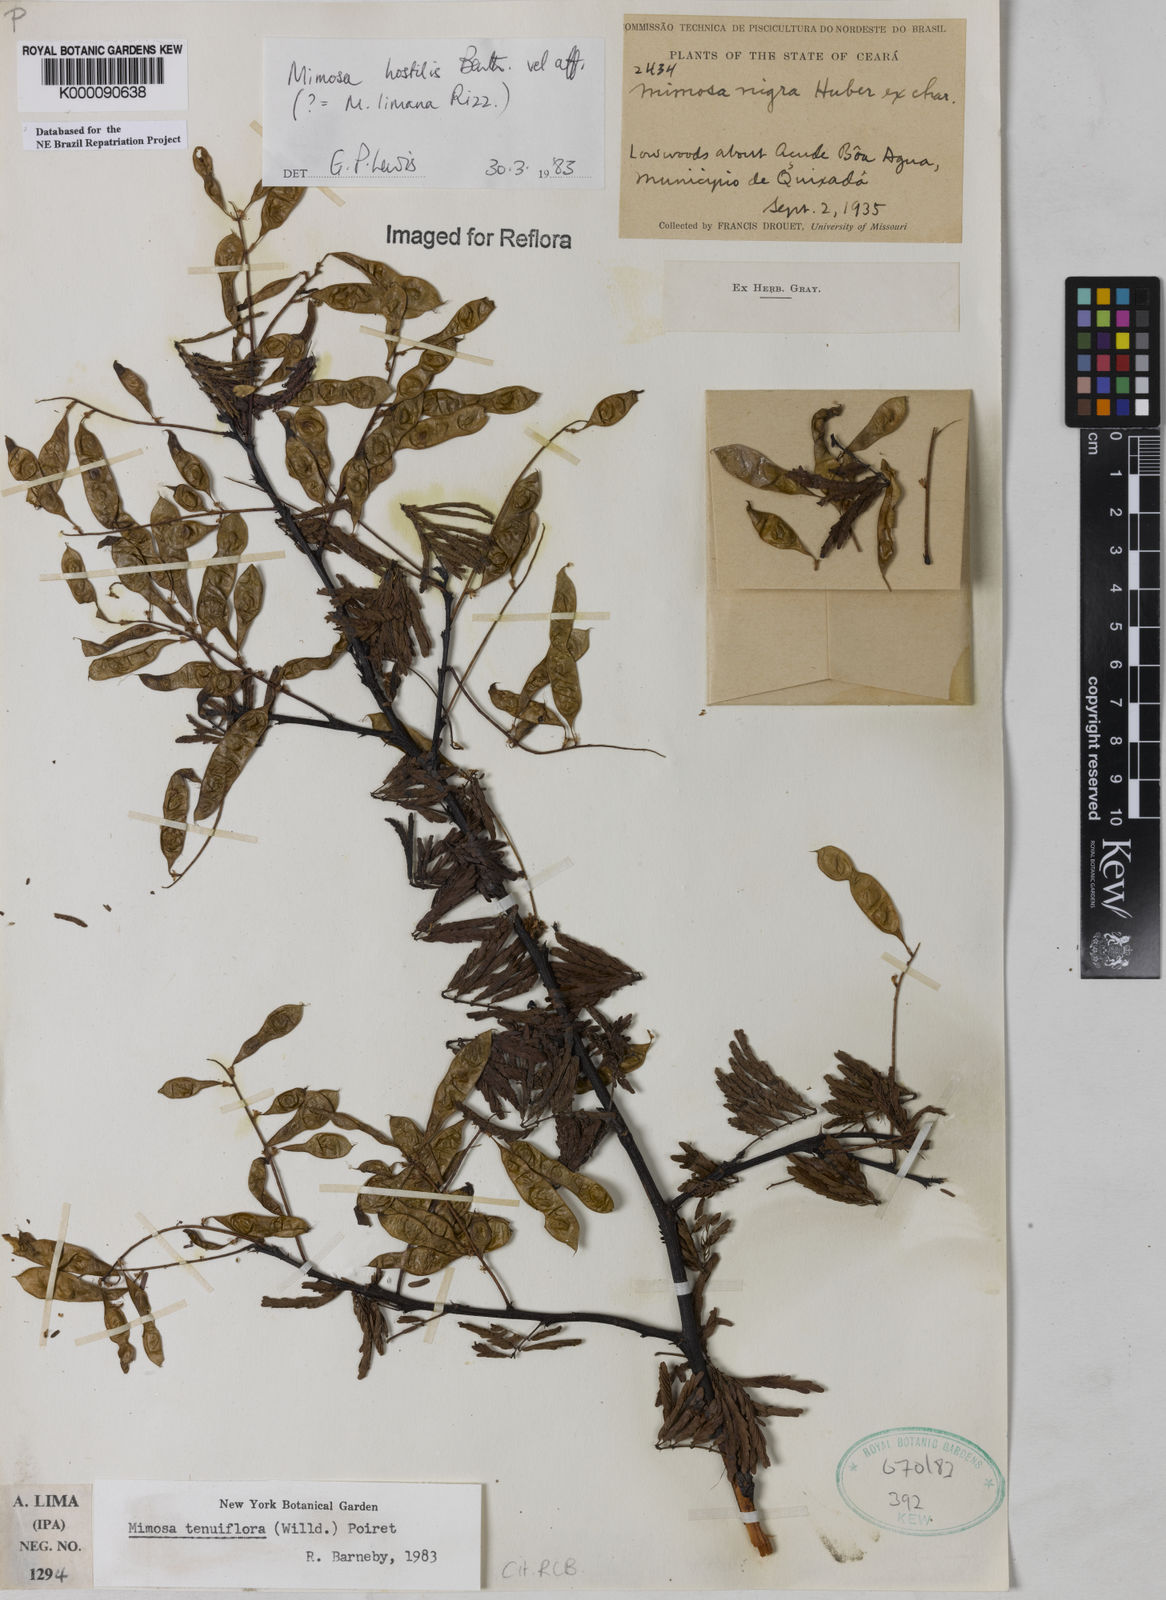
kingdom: Plantae
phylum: Tracheophyta
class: Magnoliopsida
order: Fabales
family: Fabaceae
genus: Mimosa
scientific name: Mimosa tenuiflora
